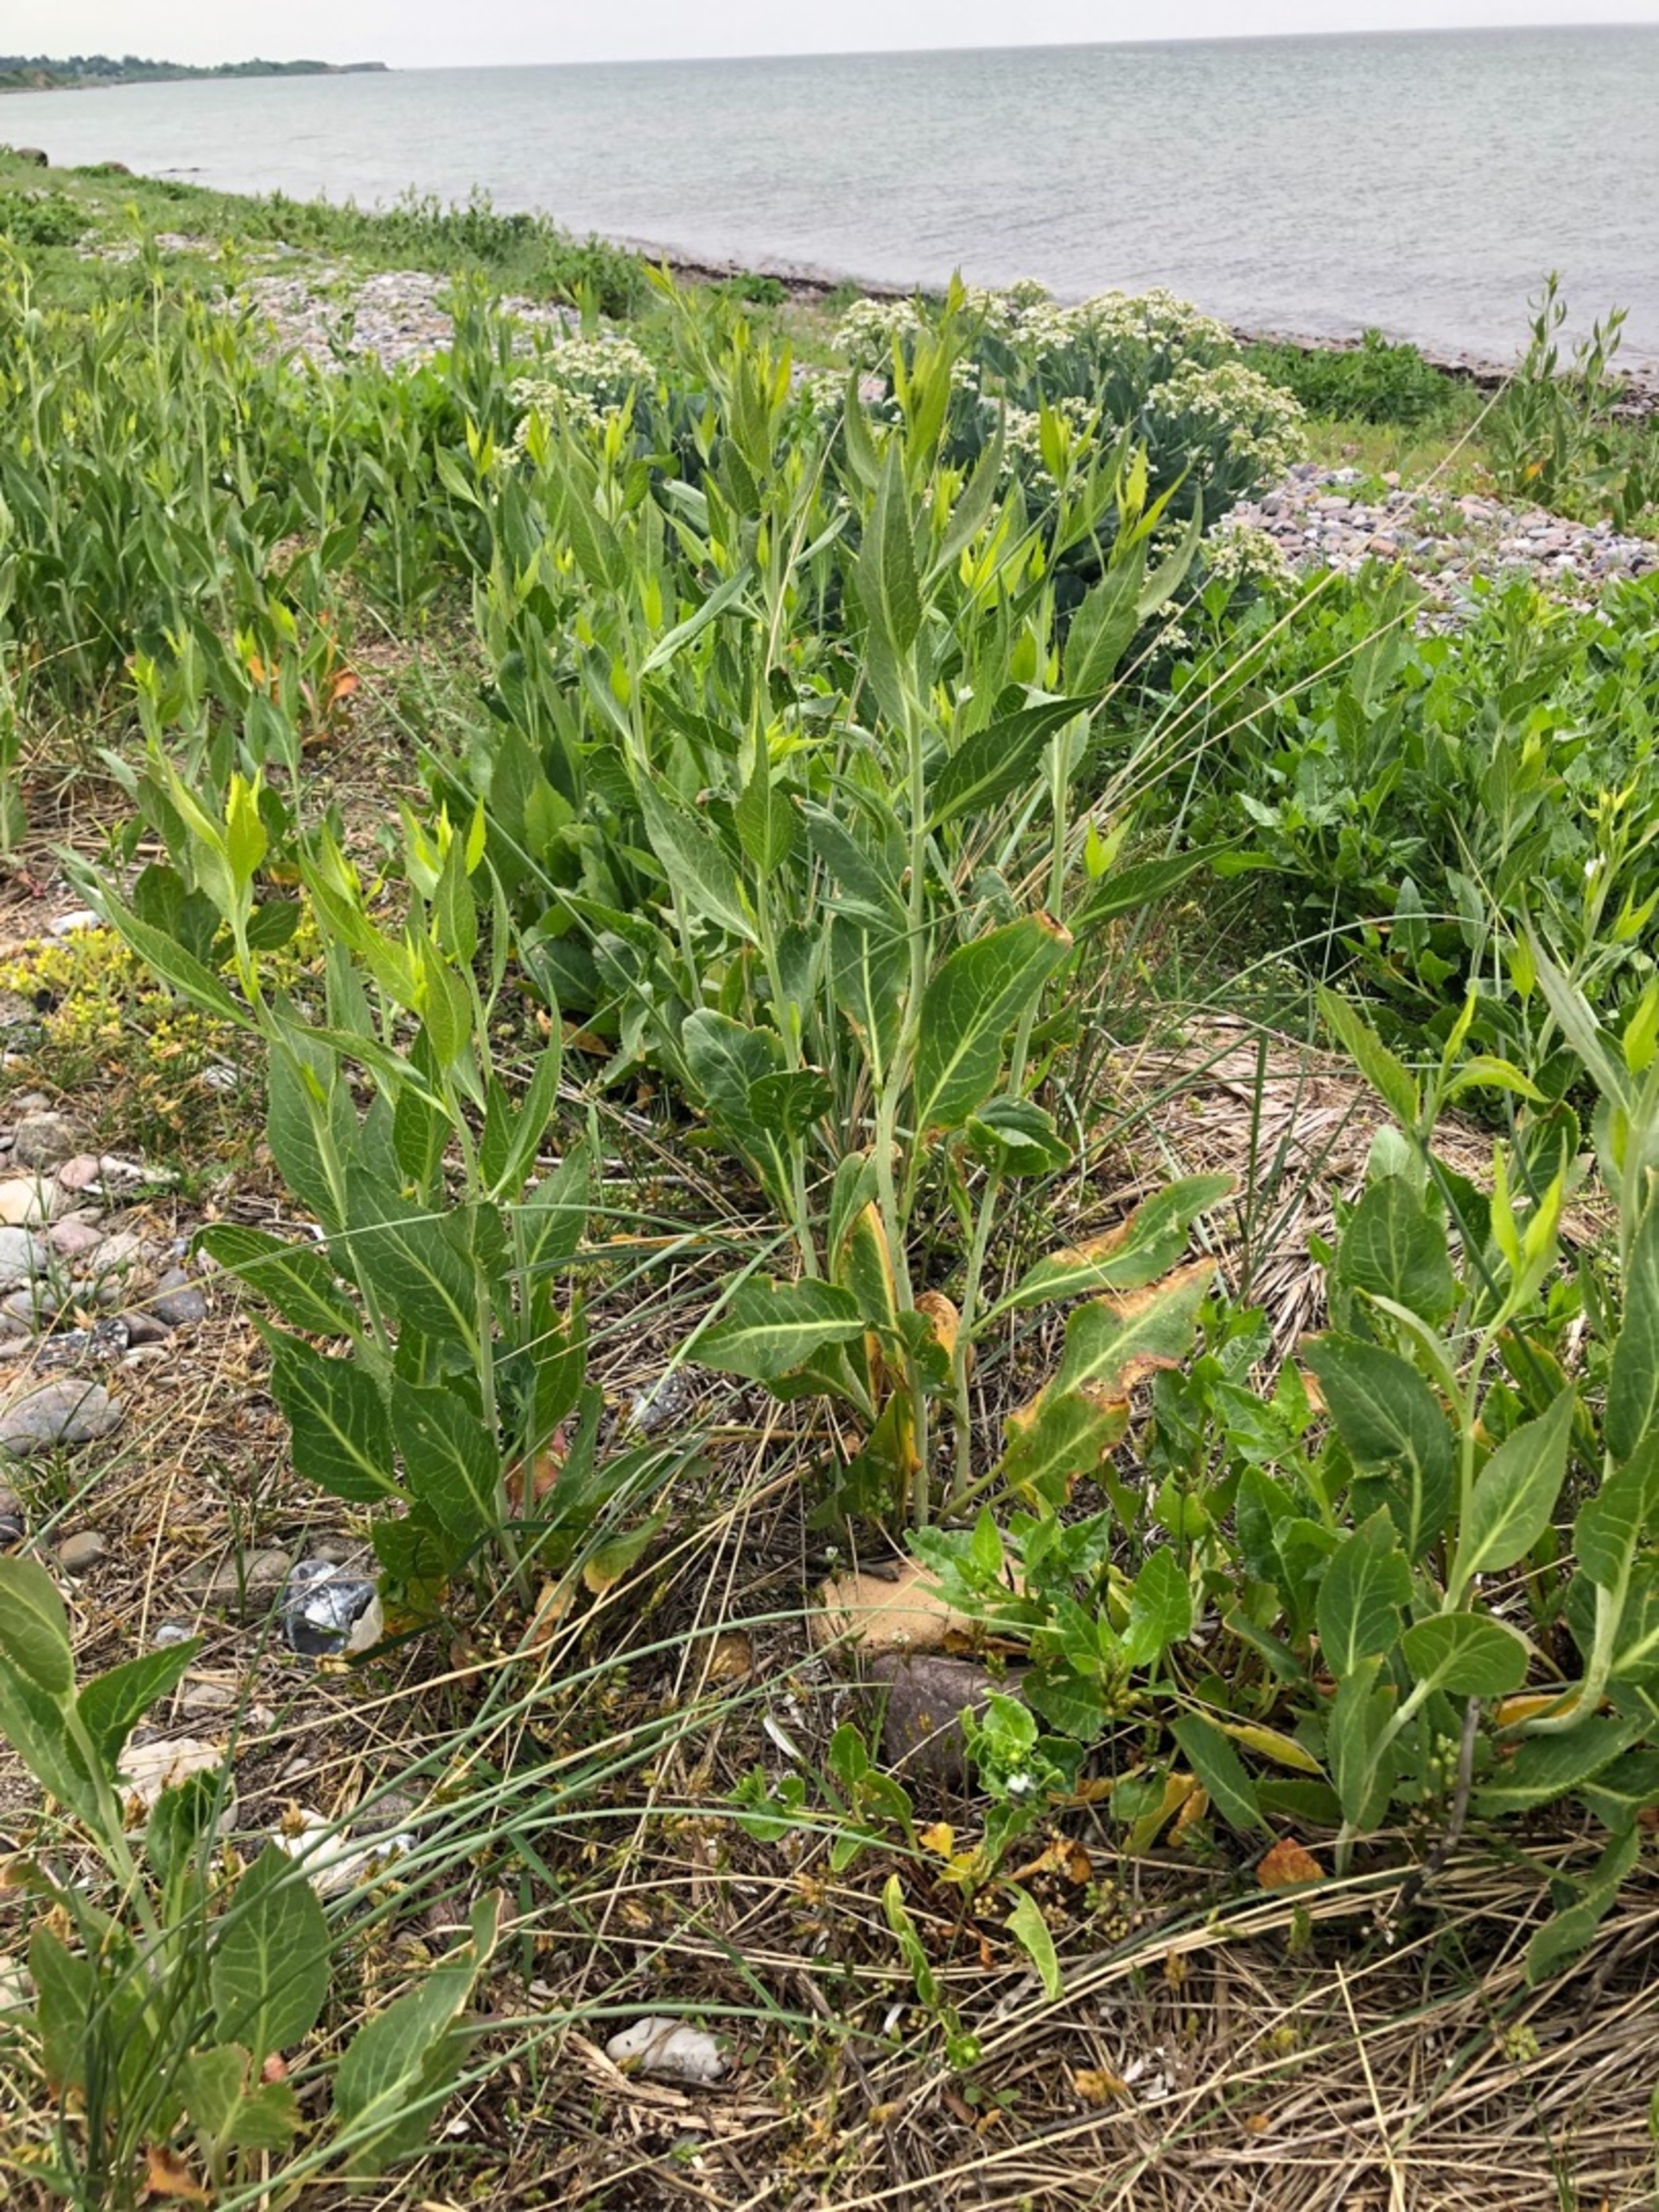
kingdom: Plantae
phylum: Tracheophyta
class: Magnoliopsida
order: Brassicales
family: Brassicaceae
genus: Lepidium
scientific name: Lepidium latifolium
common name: Strand-karse
